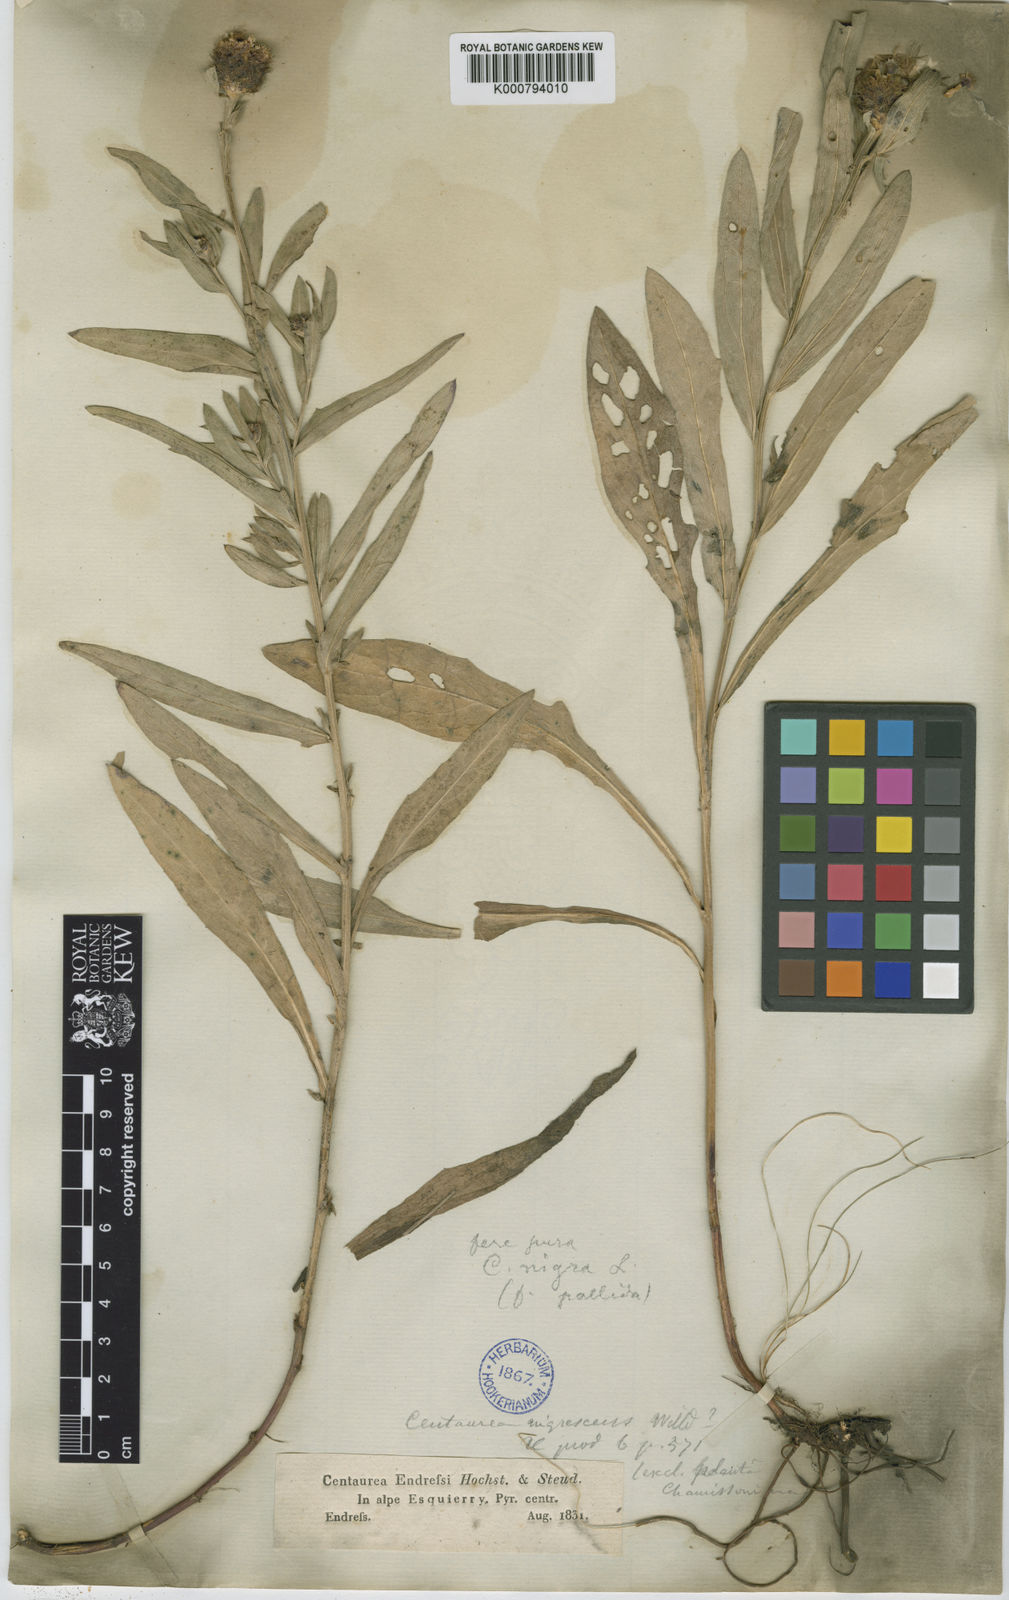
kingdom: Plantae
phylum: Tracheophyta
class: Magnoliopsida
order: Asterales
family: Asteraceae
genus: Centaurea
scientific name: Centaurea debeauxii
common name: Slender knapweed
